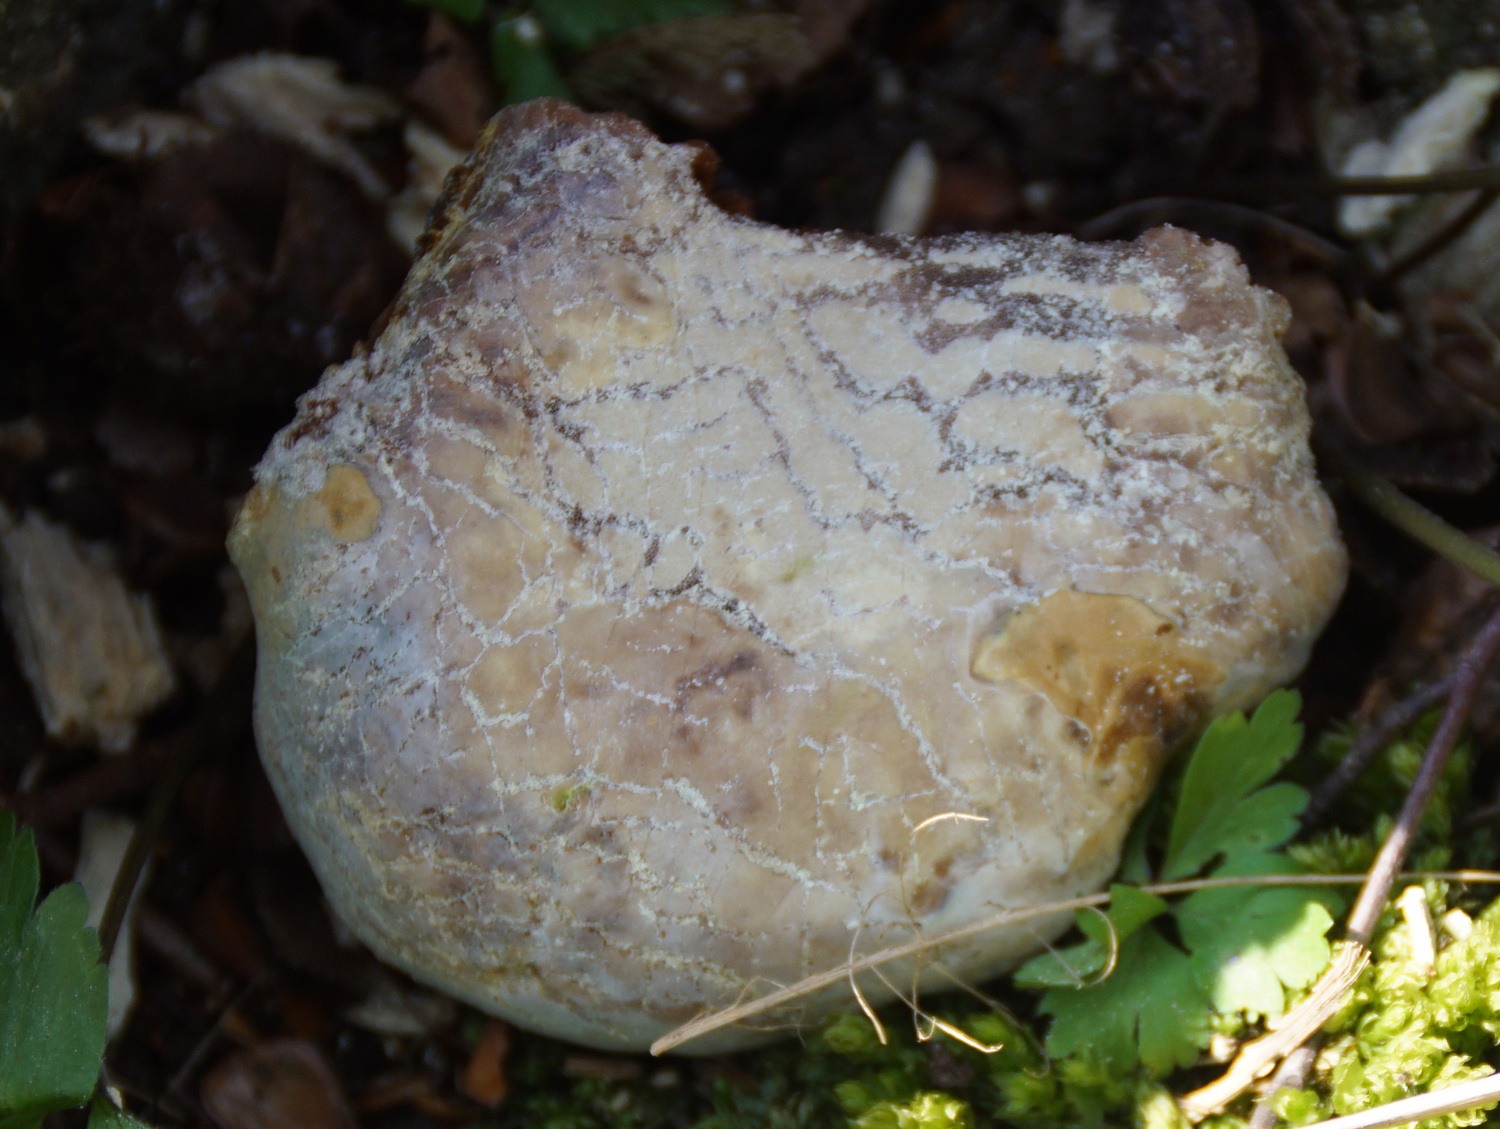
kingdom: Fungi
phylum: Basidiomycota
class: Agaricomycetes
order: Polyporales
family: Polyporaceae
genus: Ganoderma
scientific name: Ganoderma pfeifferi
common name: kobberrød lakporesvamp
